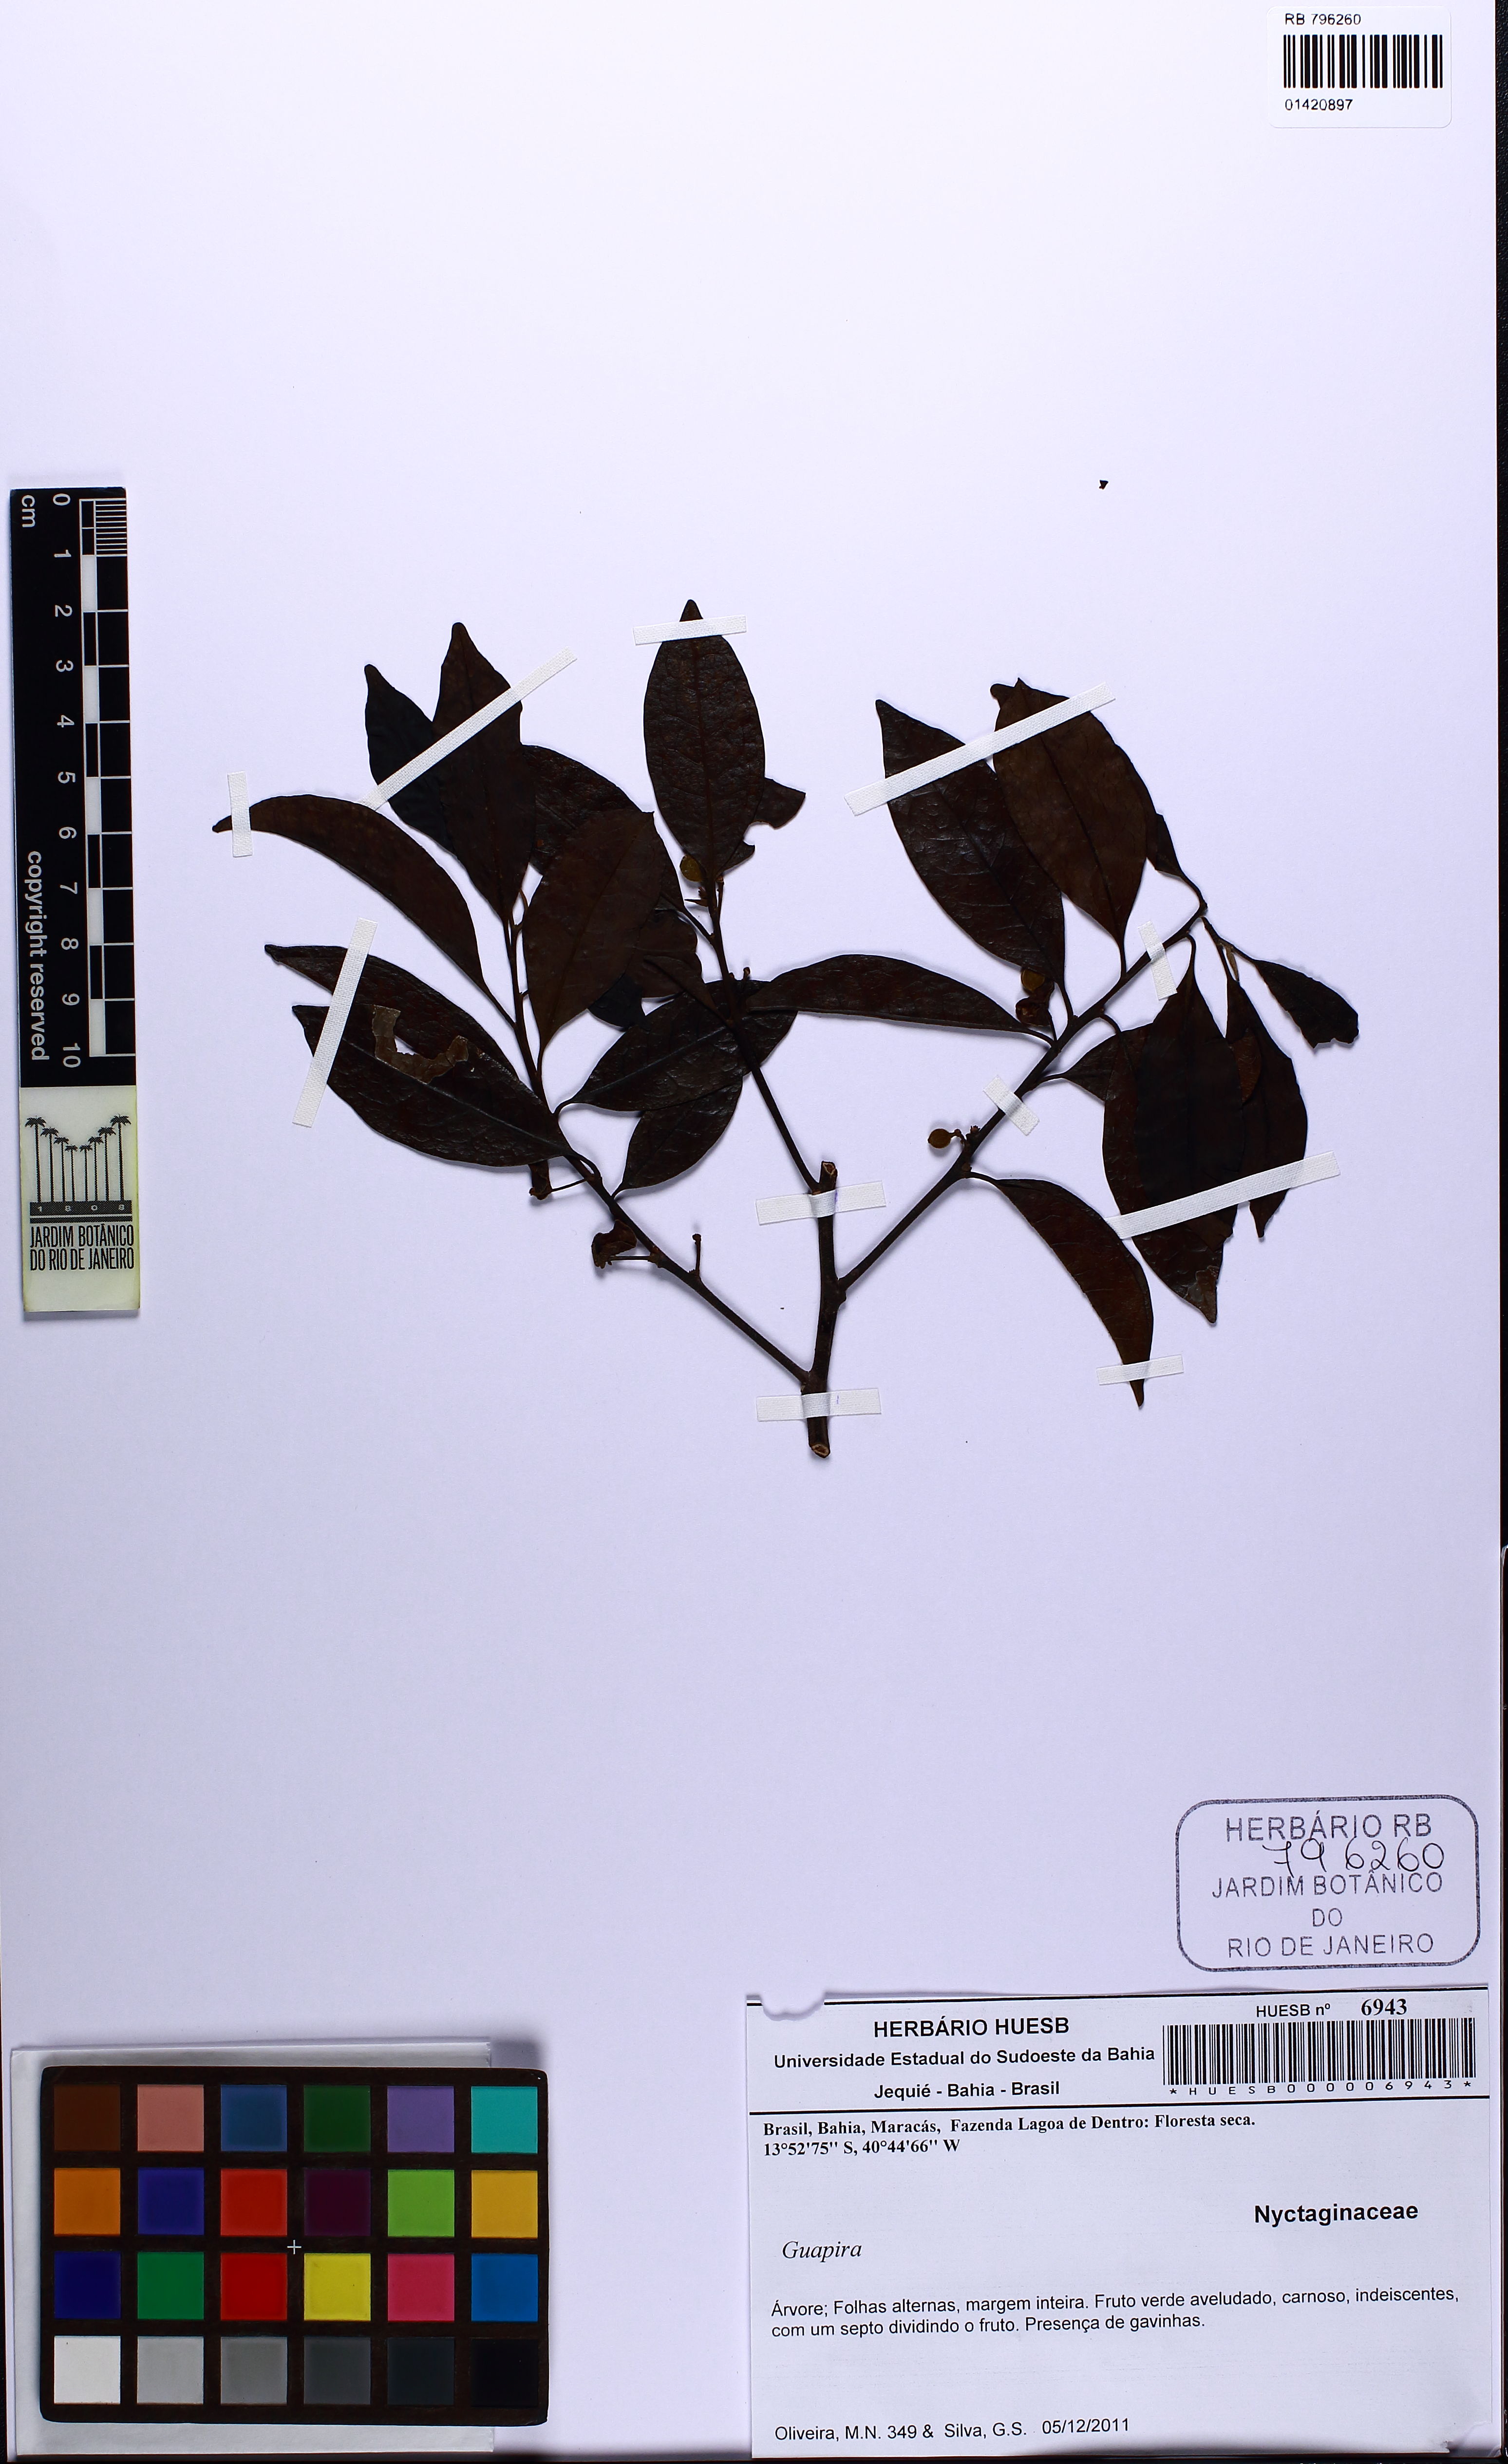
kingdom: Plantae
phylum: Tracheophyta
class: Magnoliopsida
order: Caryophyllales
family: Nyctaginaceae
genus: Guapira
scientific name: Guapira
